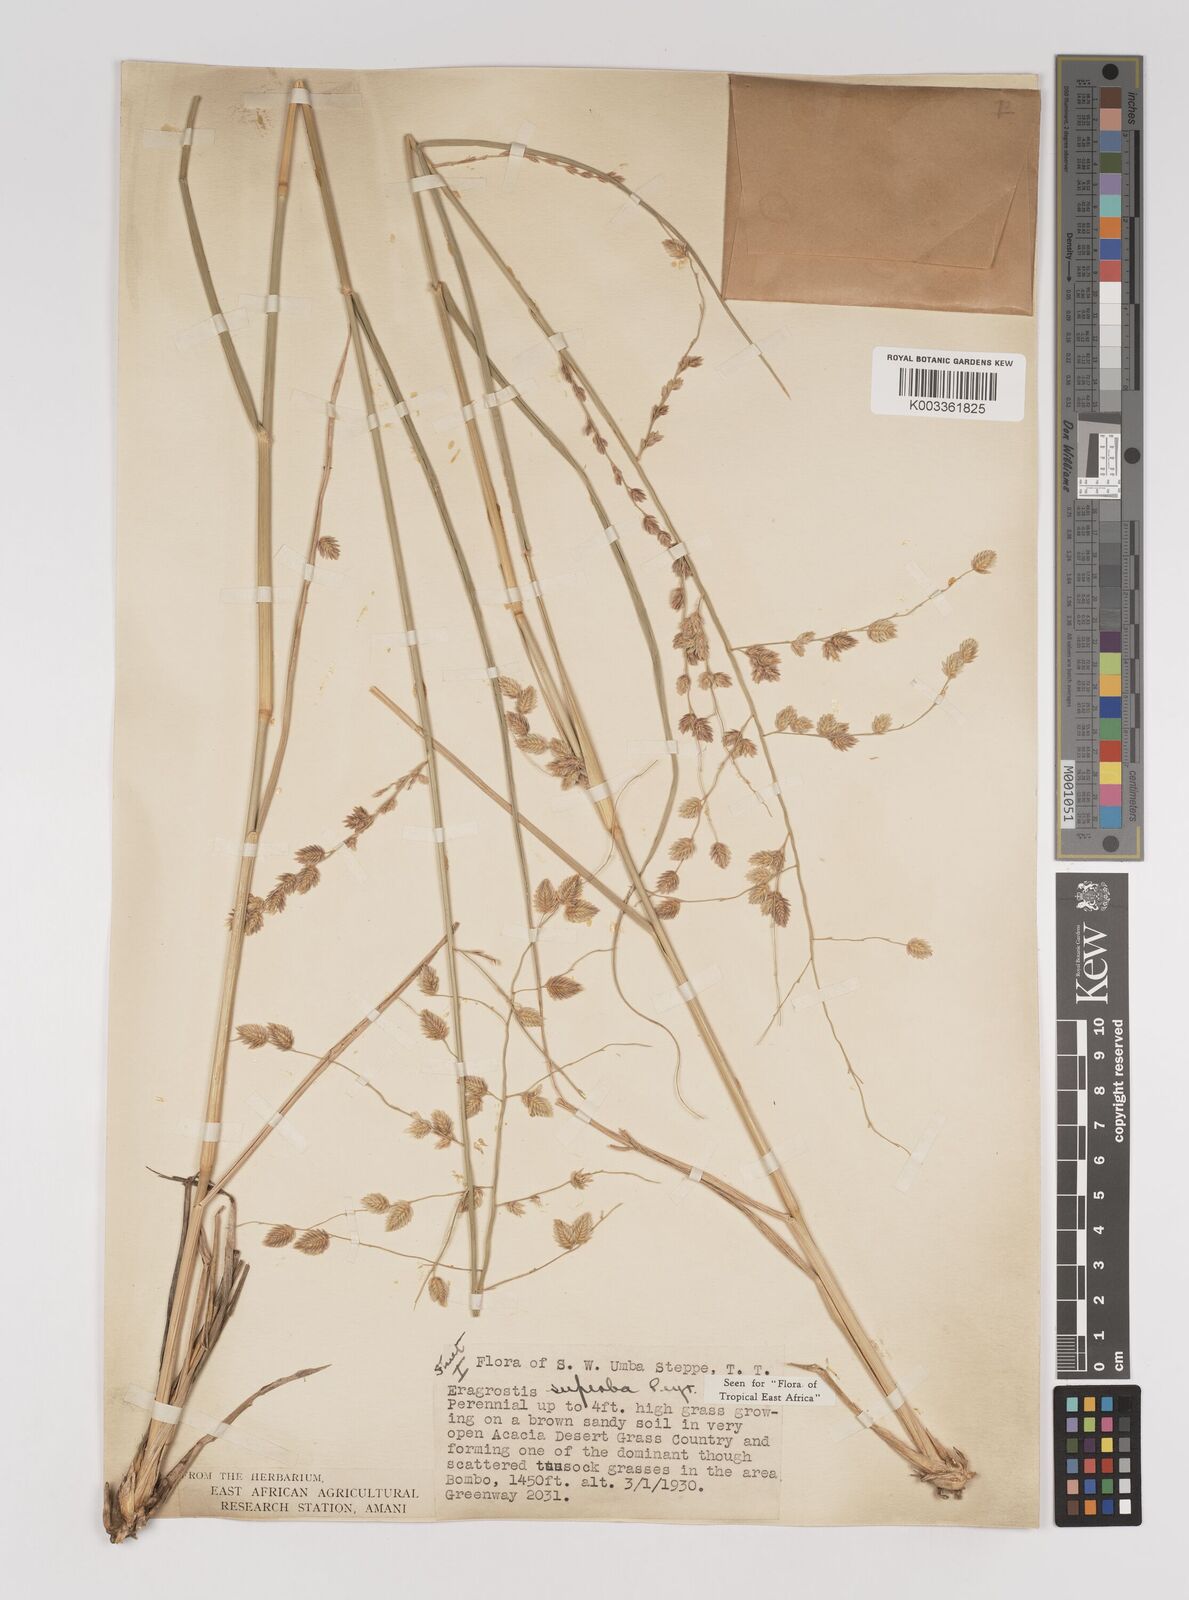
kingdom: Plantae
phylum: Tracheophyta
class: Liliopsida
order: Poales
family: Poaceae
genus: Eragrostis
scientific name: Eragrostis superba
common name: Wilman lovegrass
